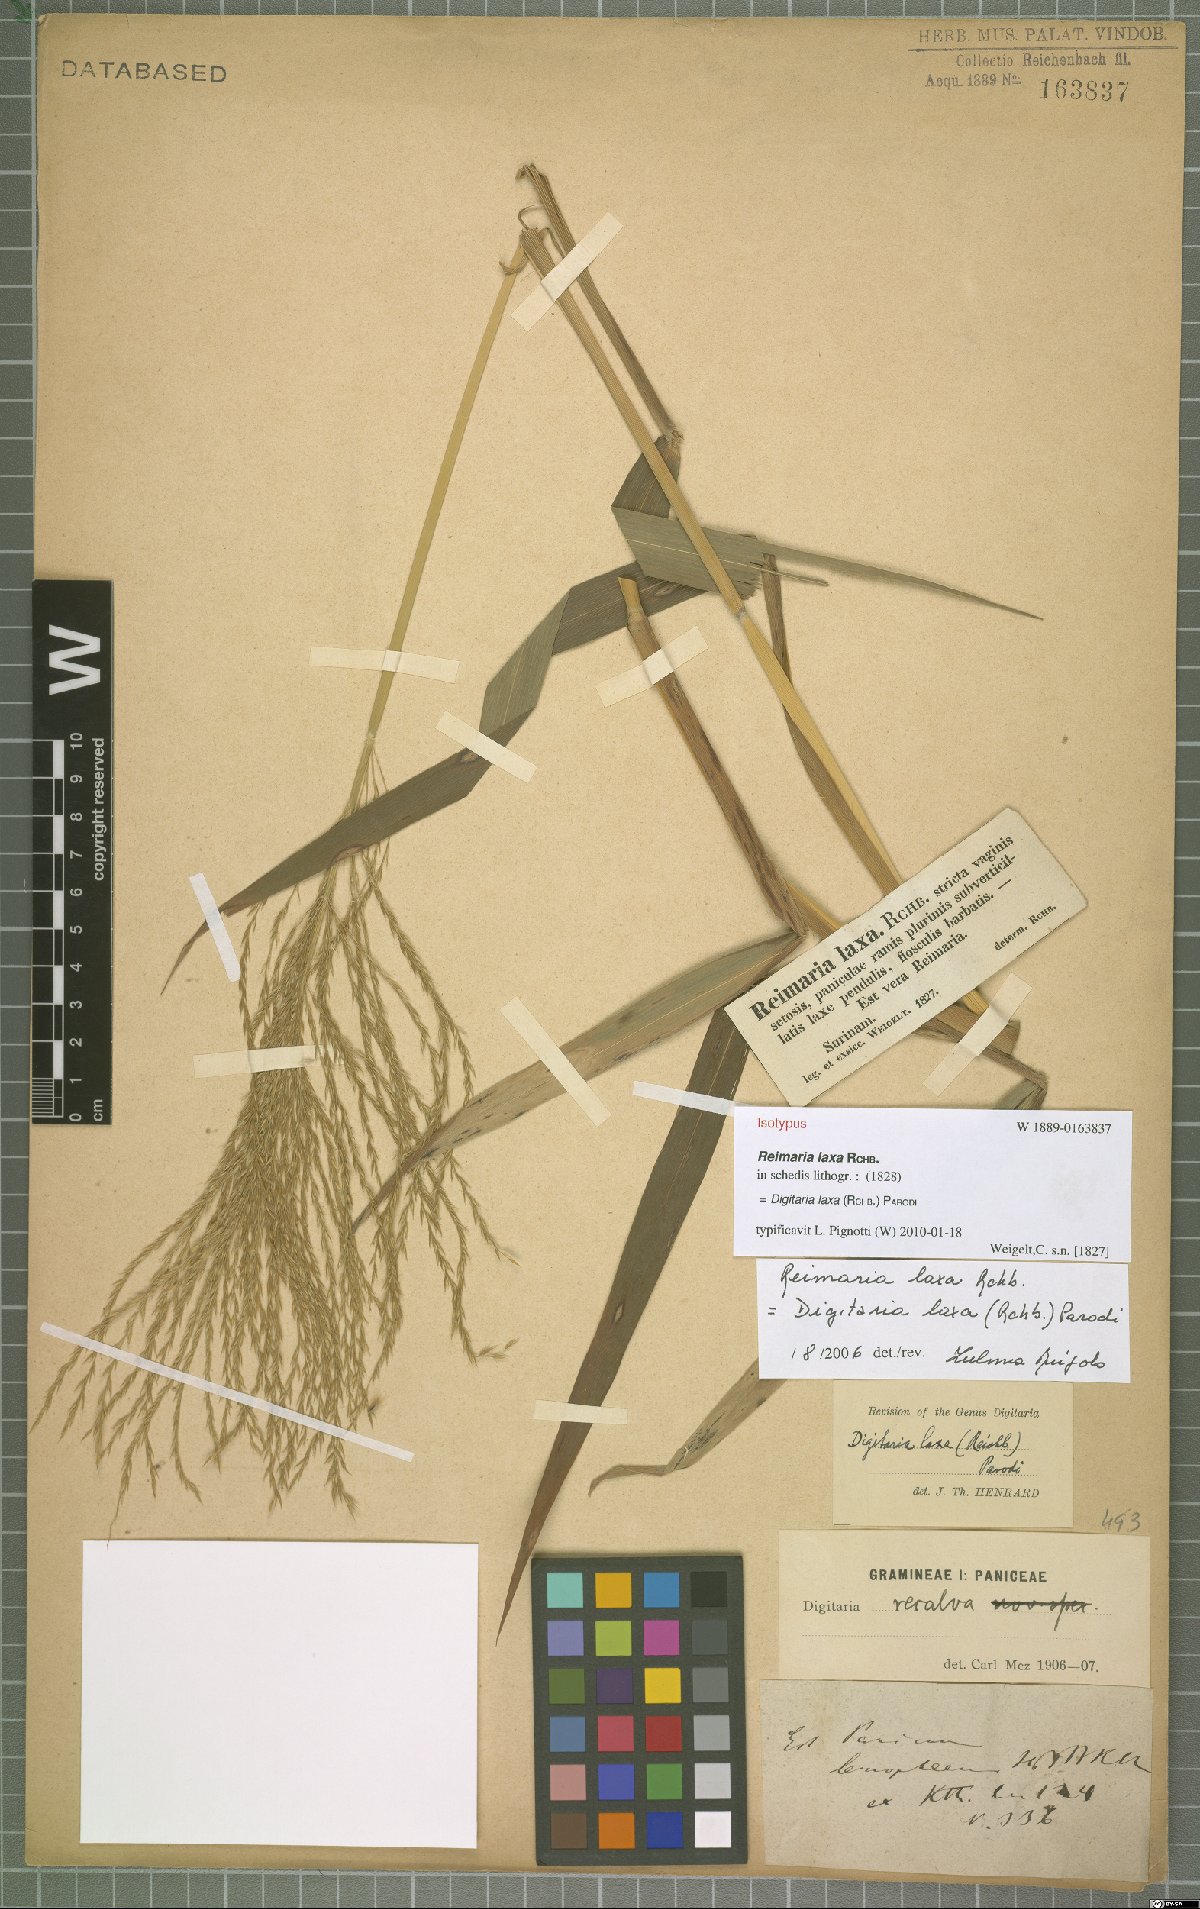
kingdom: Plantae
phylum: Tracheophyta
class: Liliopsida
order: Poales
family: Poaceae
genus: Digitaria
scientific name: Digitaria laxa
